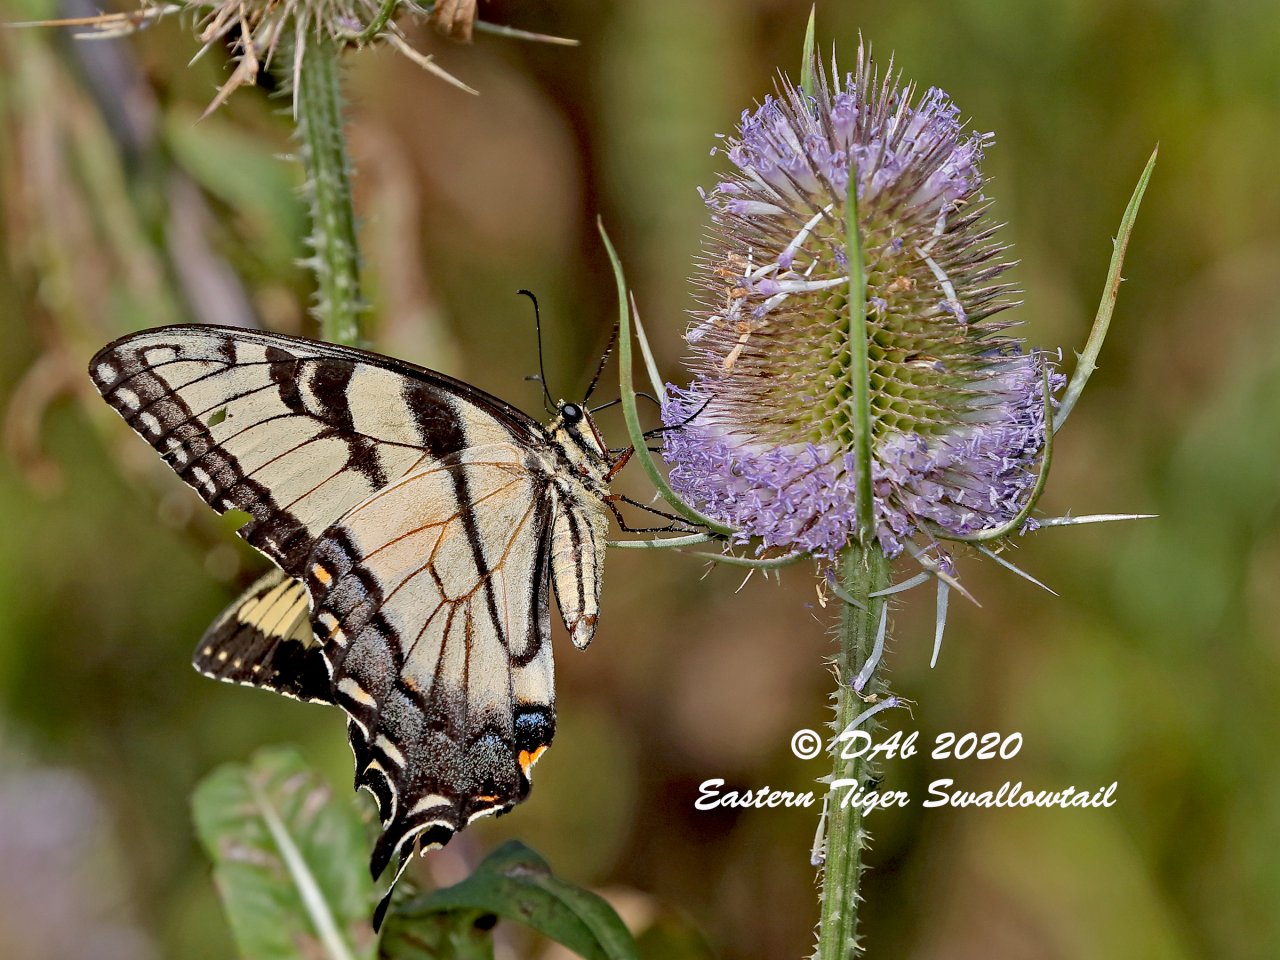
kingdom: Animalia
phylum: Arthropoda
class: Insecta
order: Lepidoptera
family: Papilionidae
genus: Pterourus
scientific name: Pterourus
